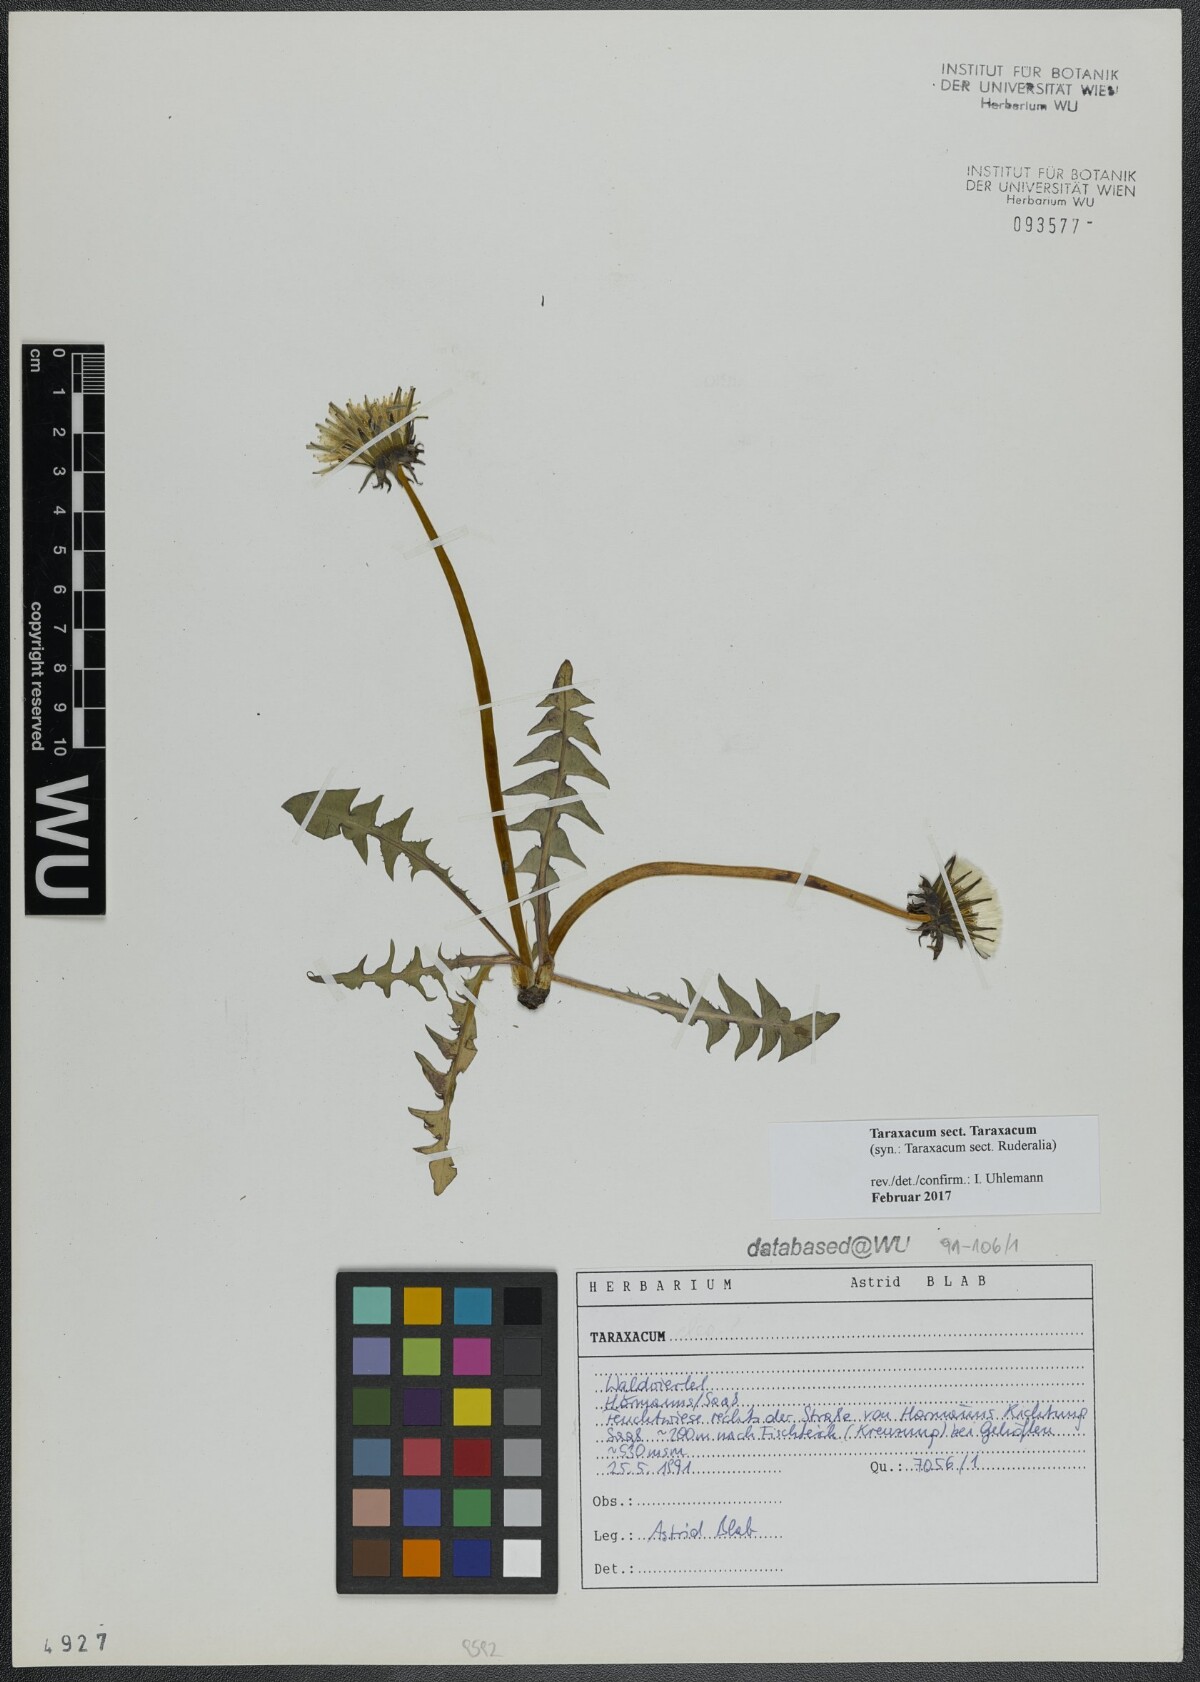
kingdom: Plantae
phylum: Tracheophyta
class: Magnoliopsida
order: Asterales
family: Asteraceae
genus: Taraxacum
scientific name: Taraxacum
